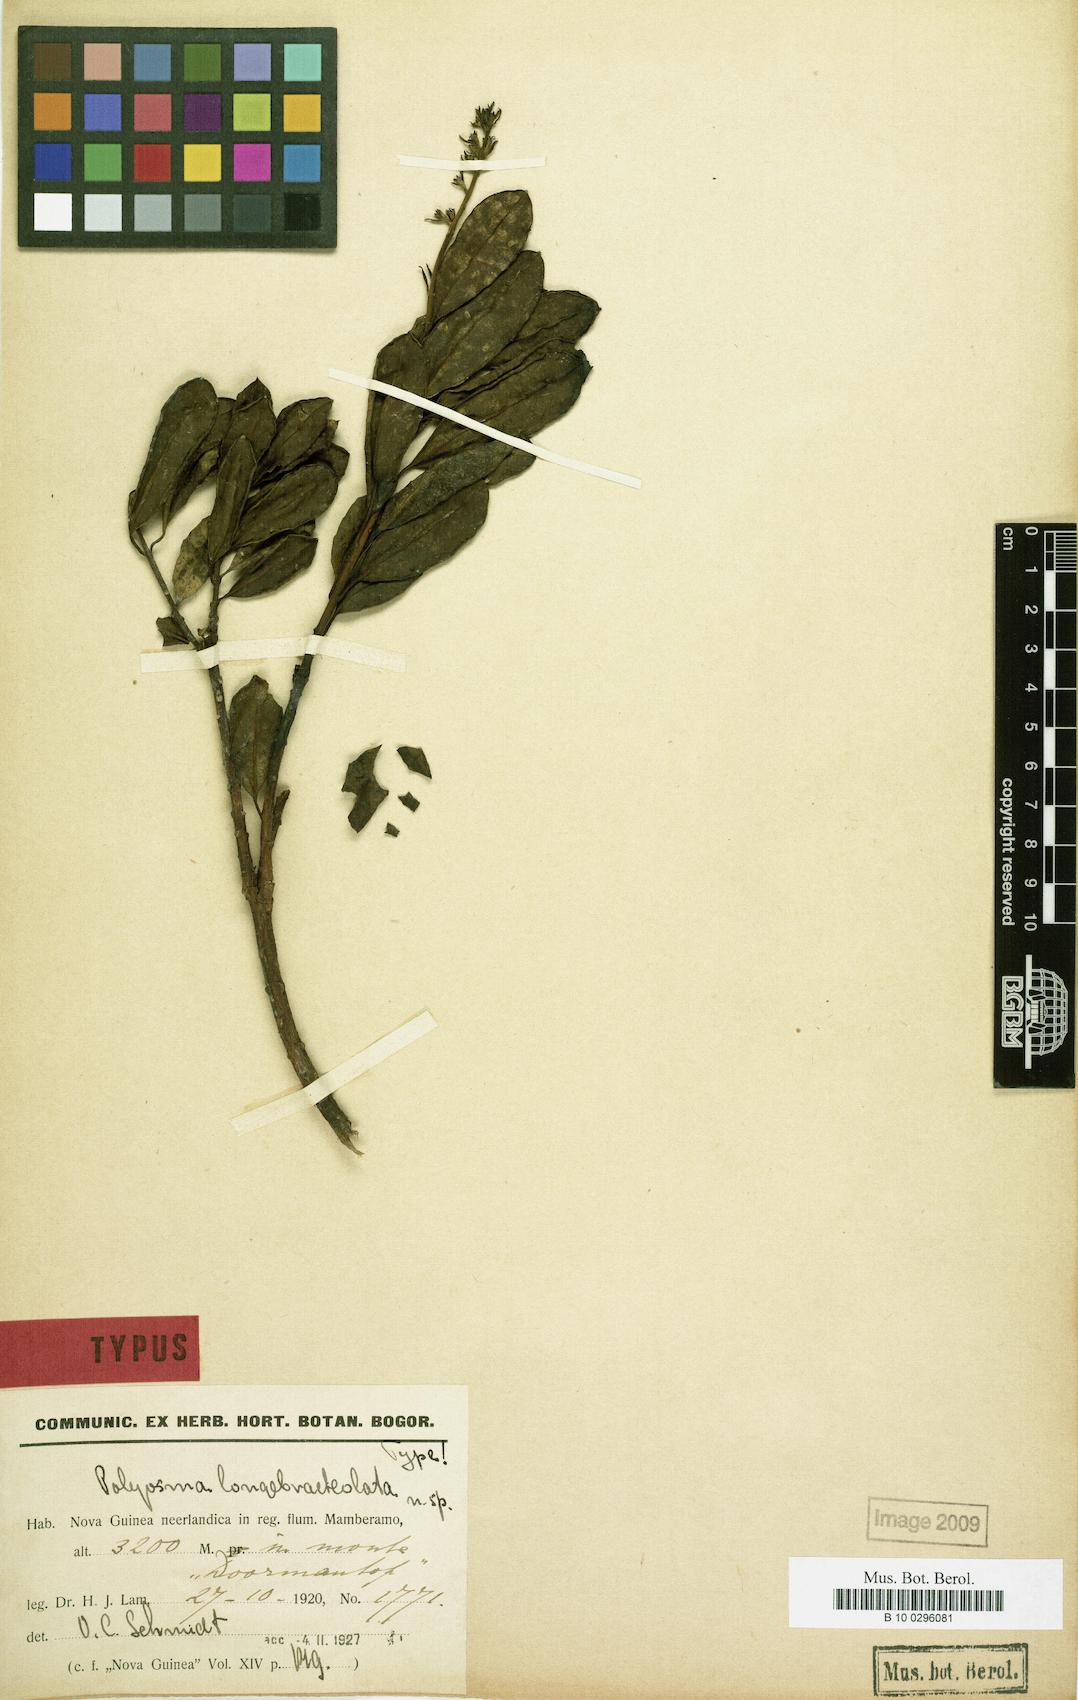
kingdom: Plantae
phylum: Tracheophyta
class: Magnoliopsida
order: Escalloniales
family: Escalloniaceae
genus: Polyosma
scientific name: Polyosma longebracteolata
